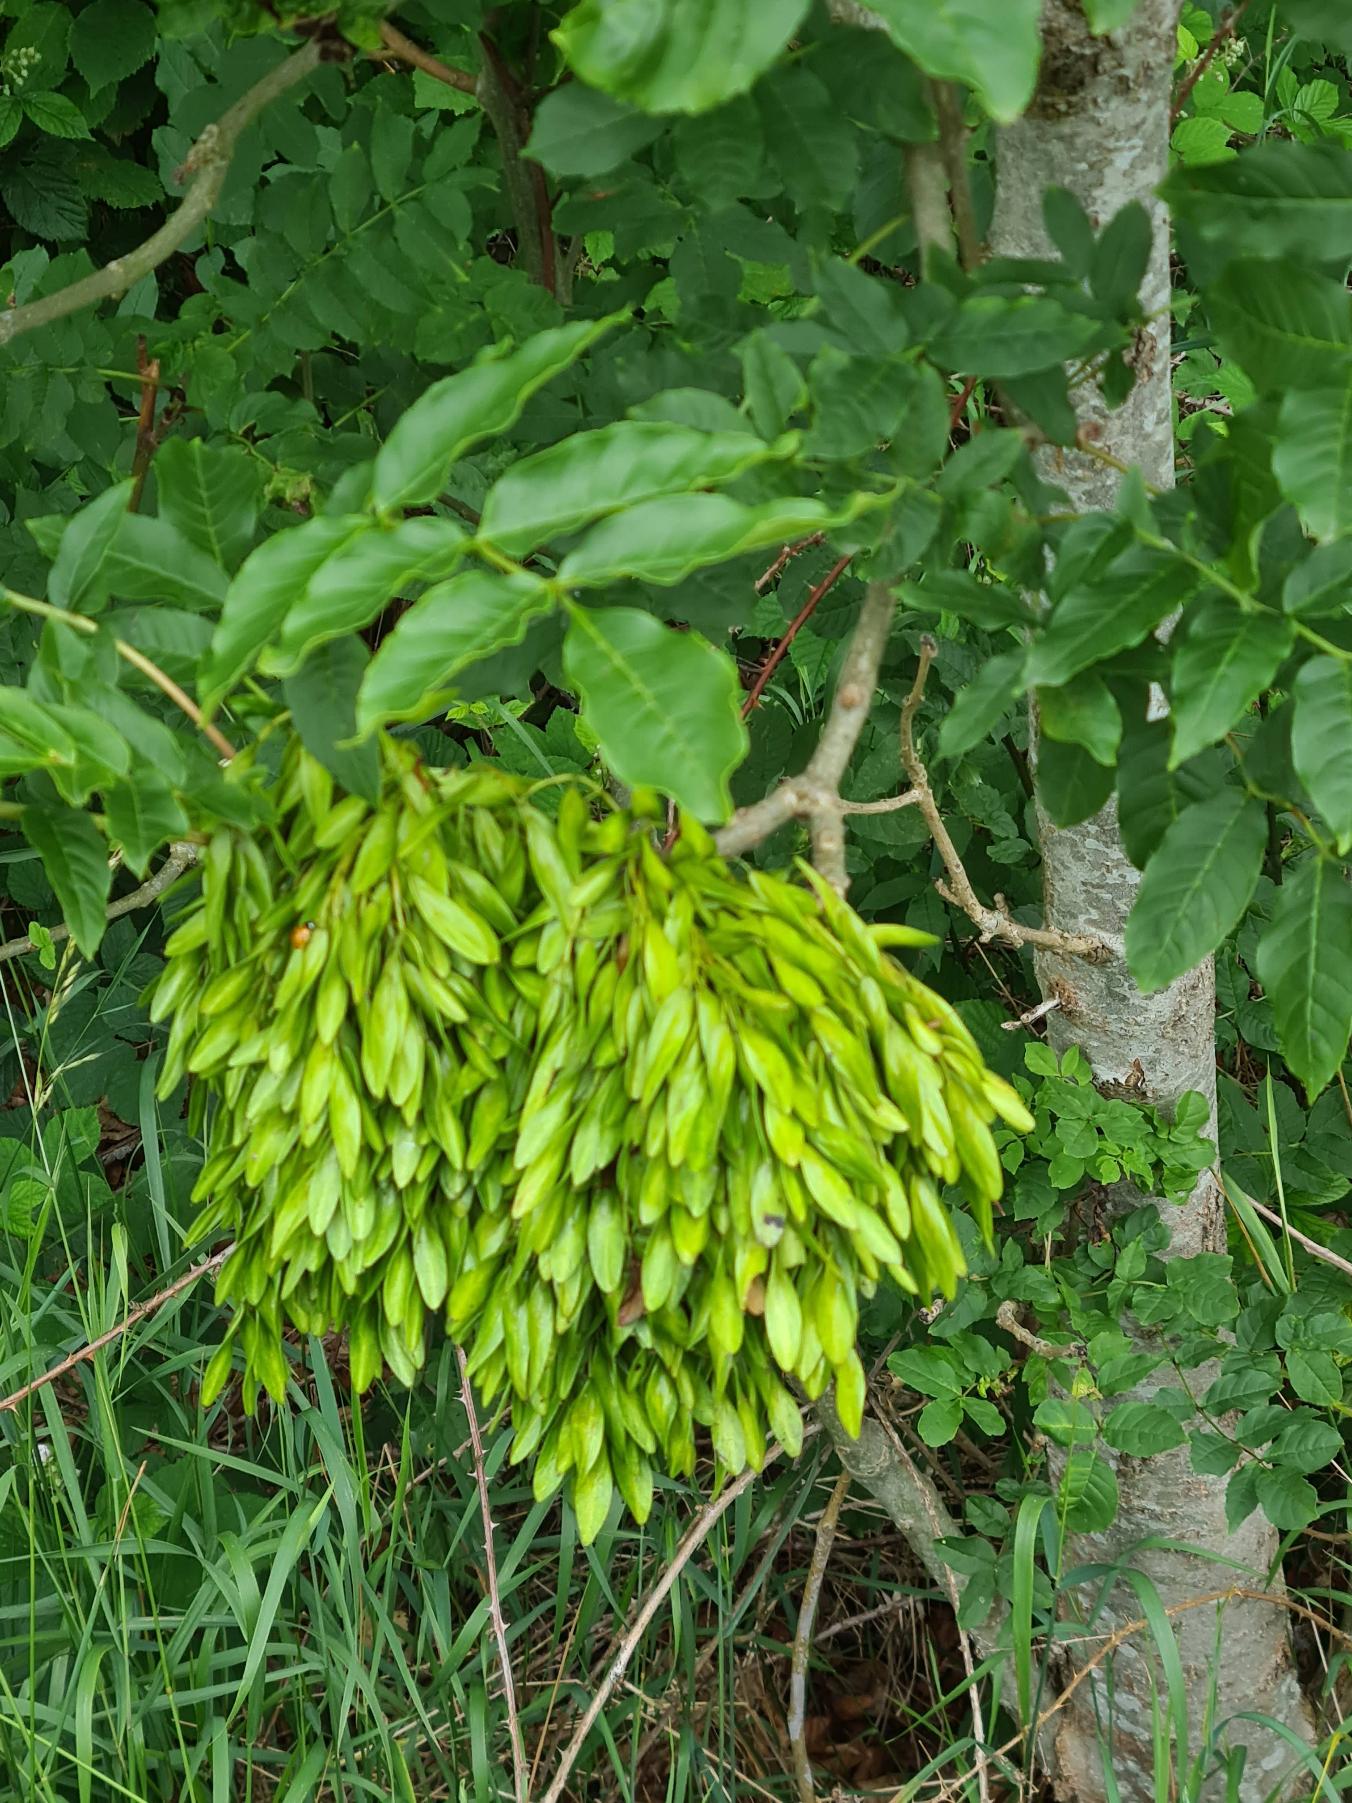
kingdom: Plantae
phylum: Tracheophyta
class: Magnoliopsida
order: Lamiales
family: Oleaceae
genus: Fraxinus
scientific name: Fraxinus excelsior
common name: Ask
